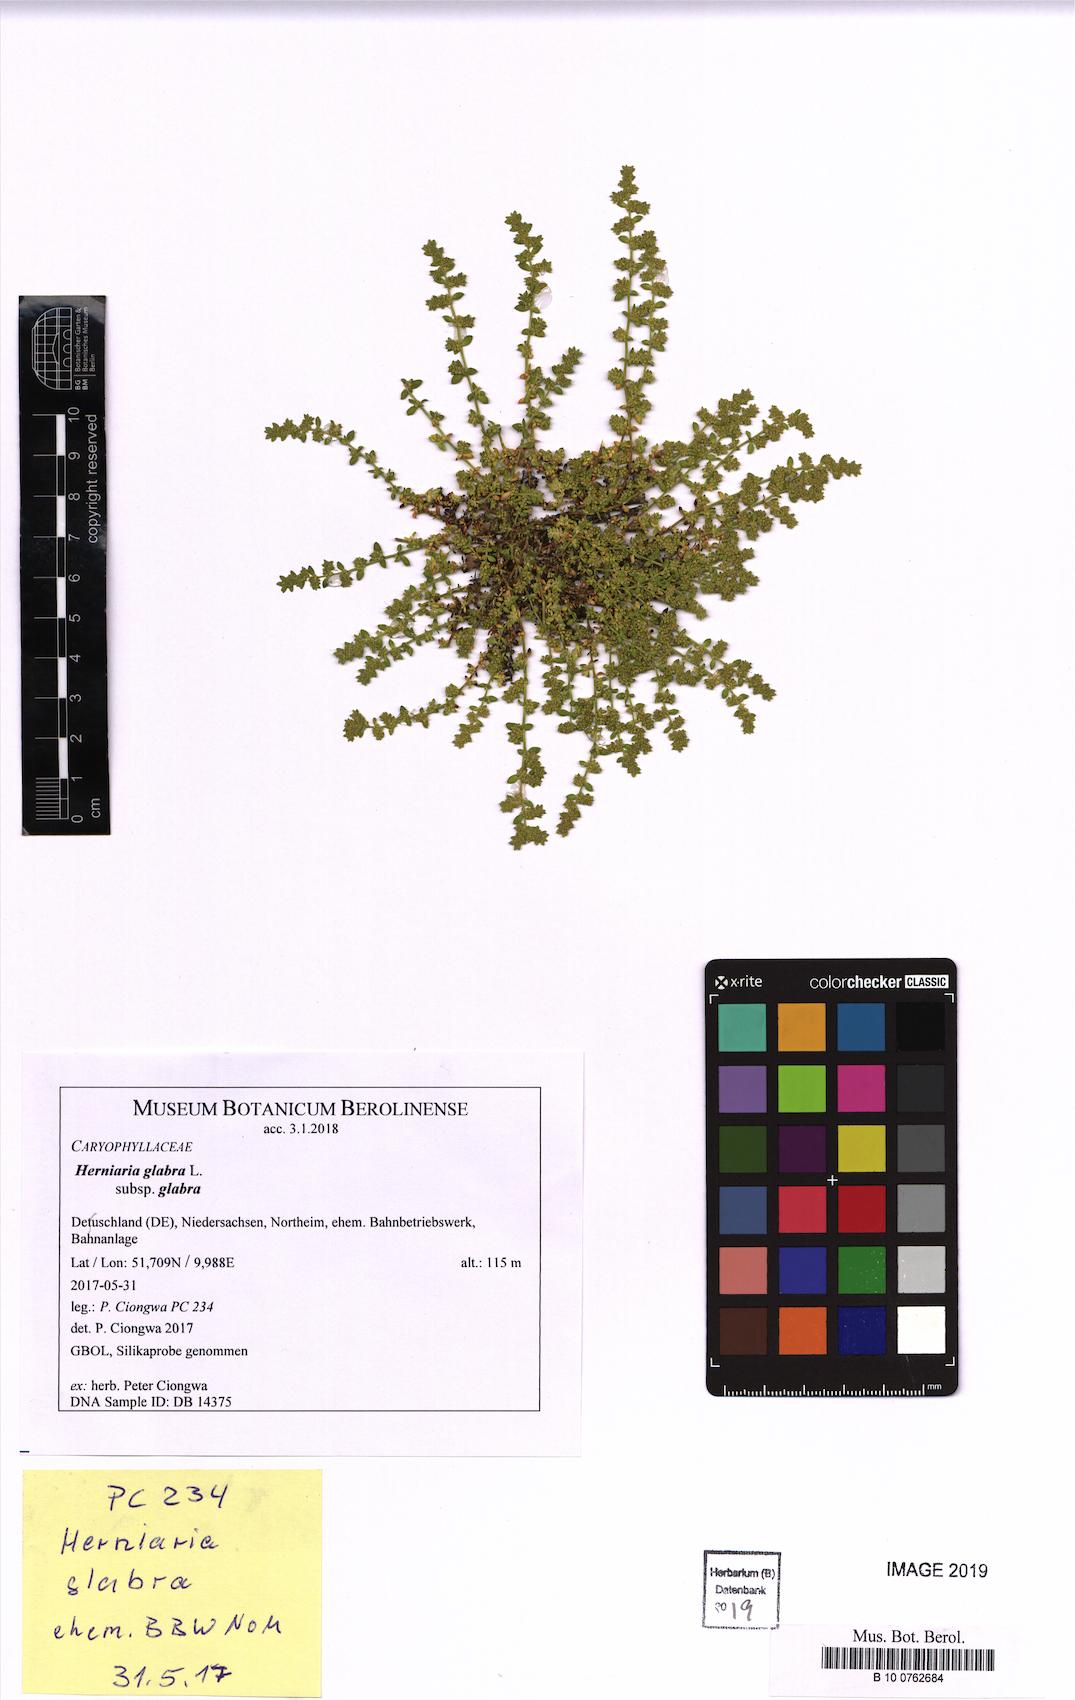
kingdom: Plantae
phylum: Tracheophyta
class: Magnoliopsida
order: Caryophyllales
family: Caryophyllaceae
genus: Herniaria
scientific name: Herniaria glabra
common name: Smooth rupturewort
